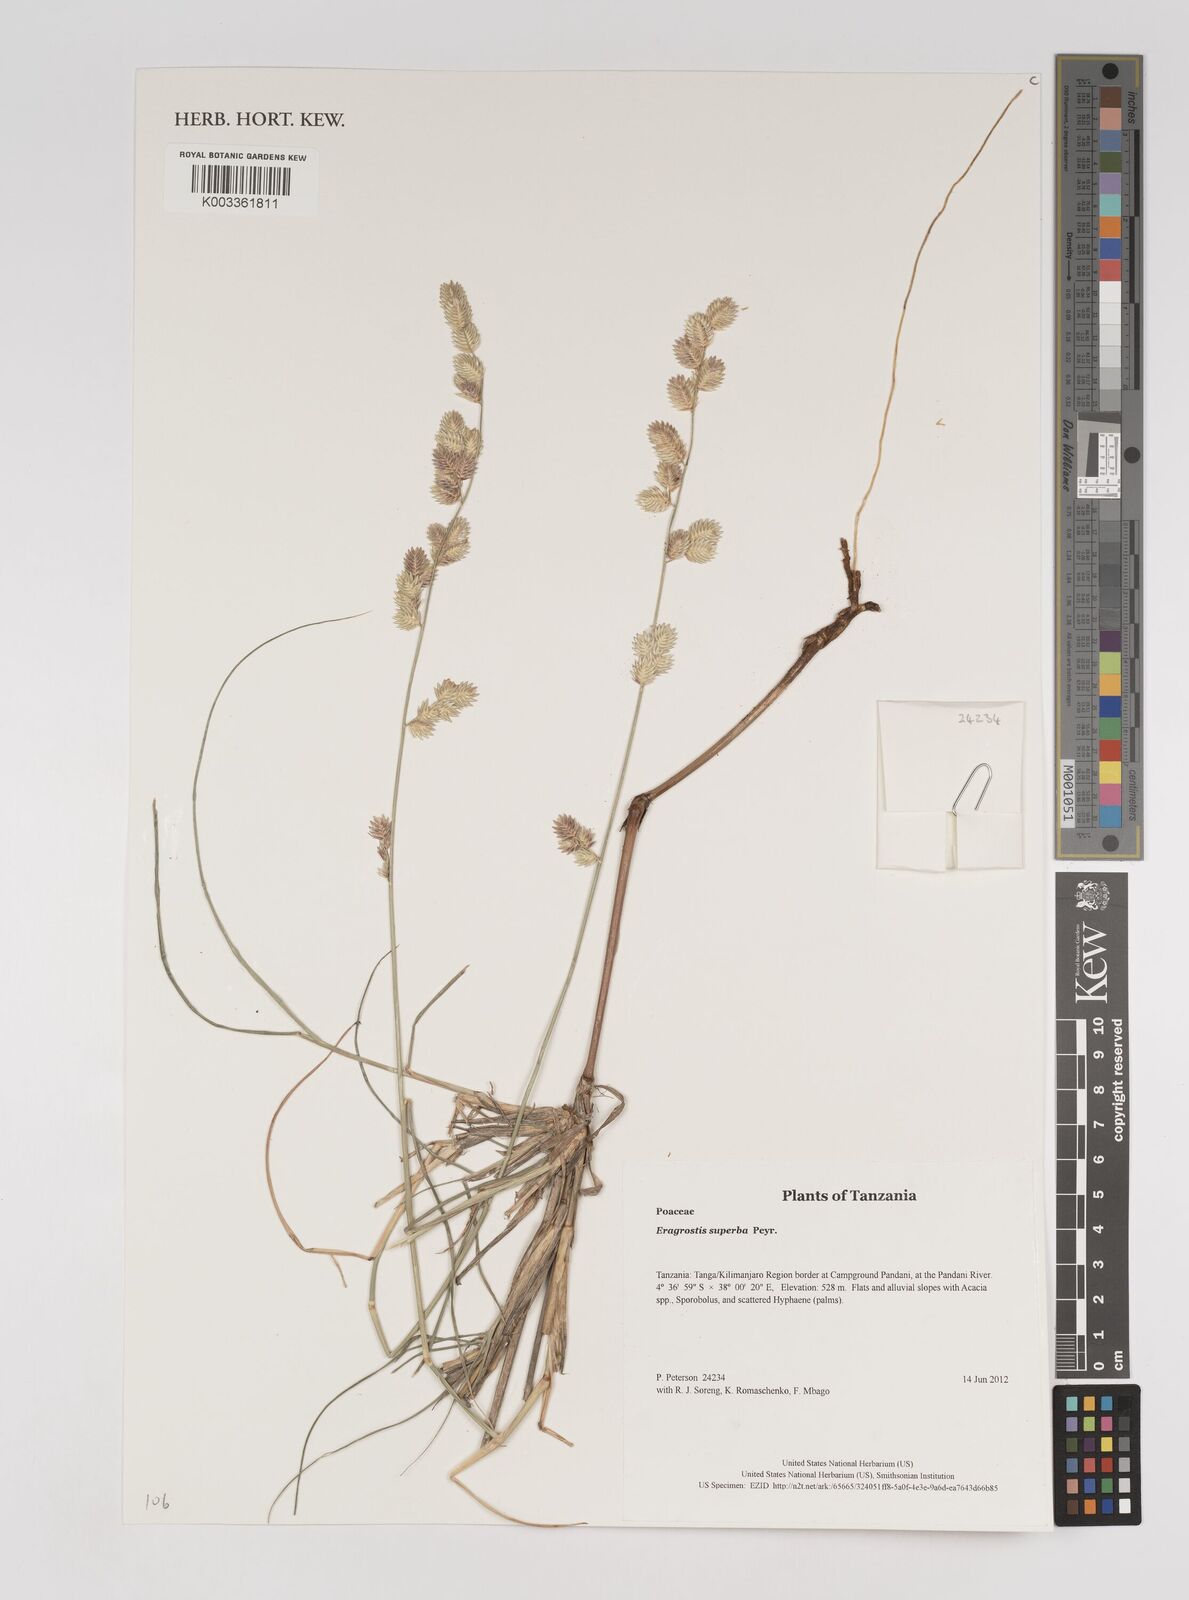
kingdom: Plantae
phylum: Tracheophyta
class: Liliopsida
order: Poales
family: Poaceae
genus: Eragrostis
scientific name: Eragrostis superba
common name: Wilman lovegrass
